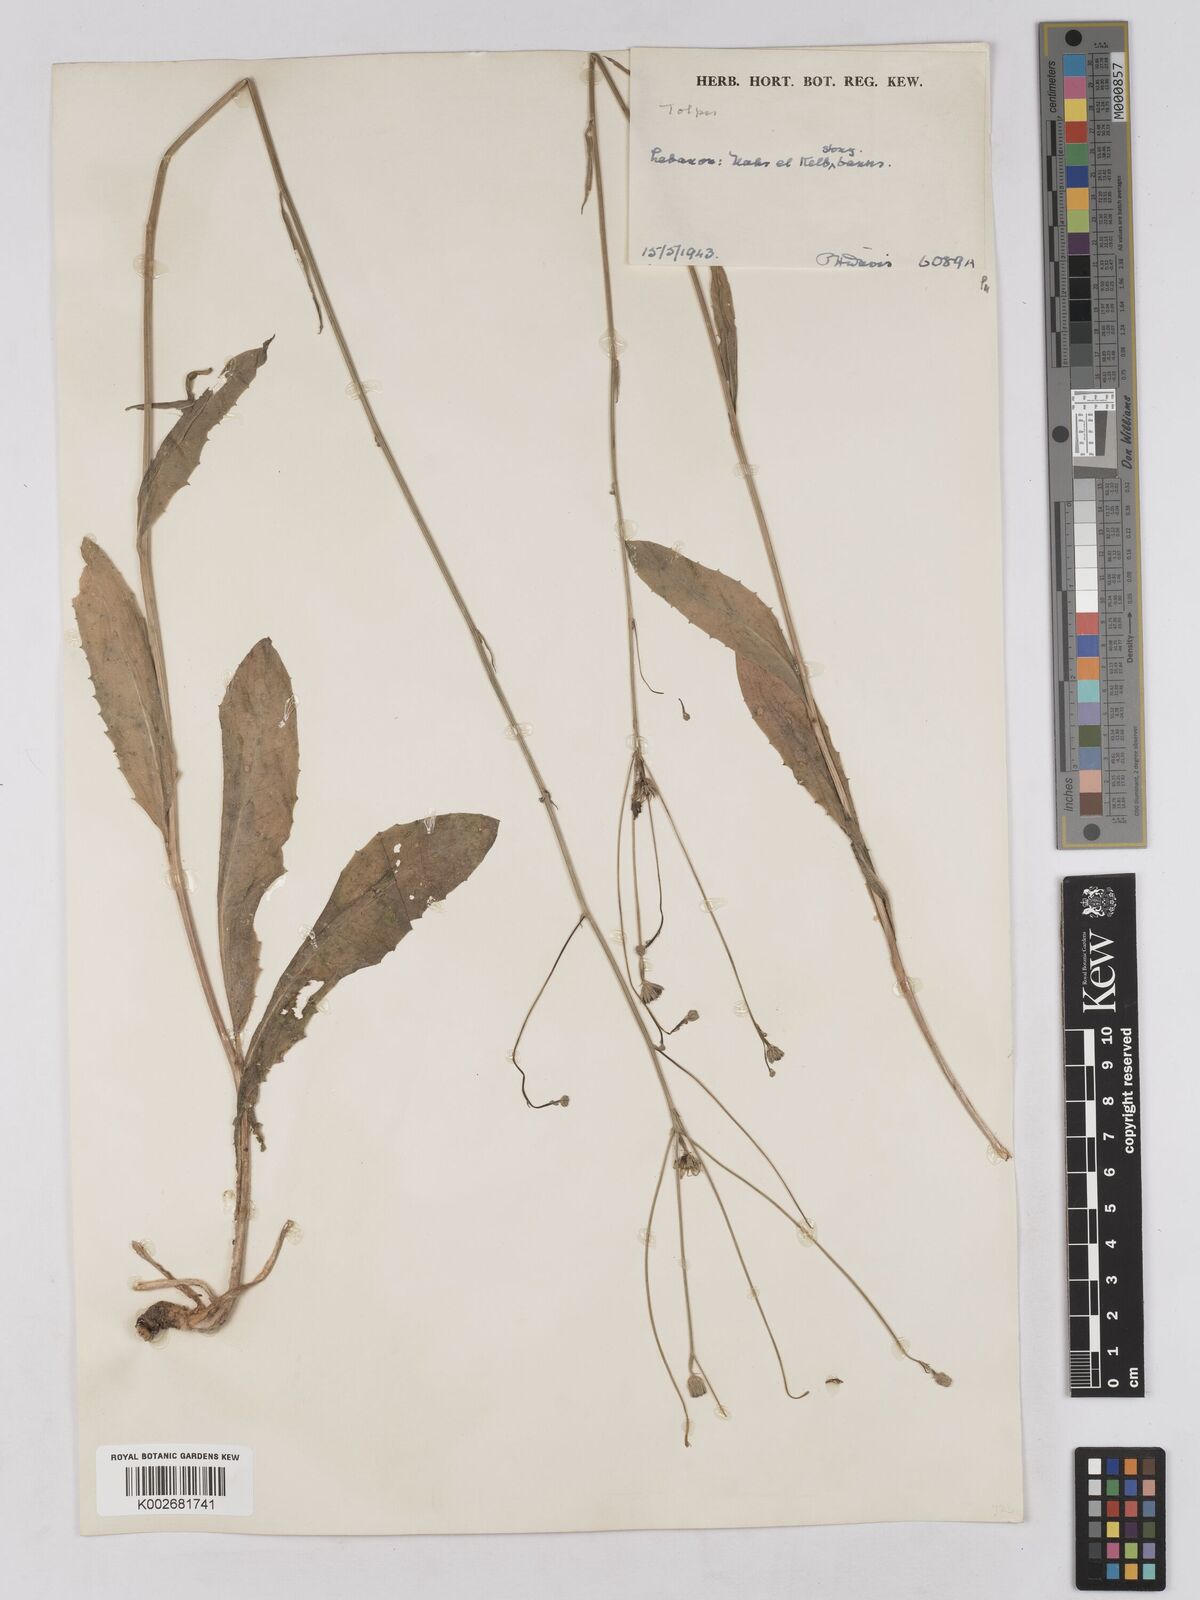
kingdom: Plantae
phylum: Tracheophyta
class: Magnoliopsida
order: Asterales
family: Asteraceae
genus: Tolpis
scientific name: Tolpis virgata
